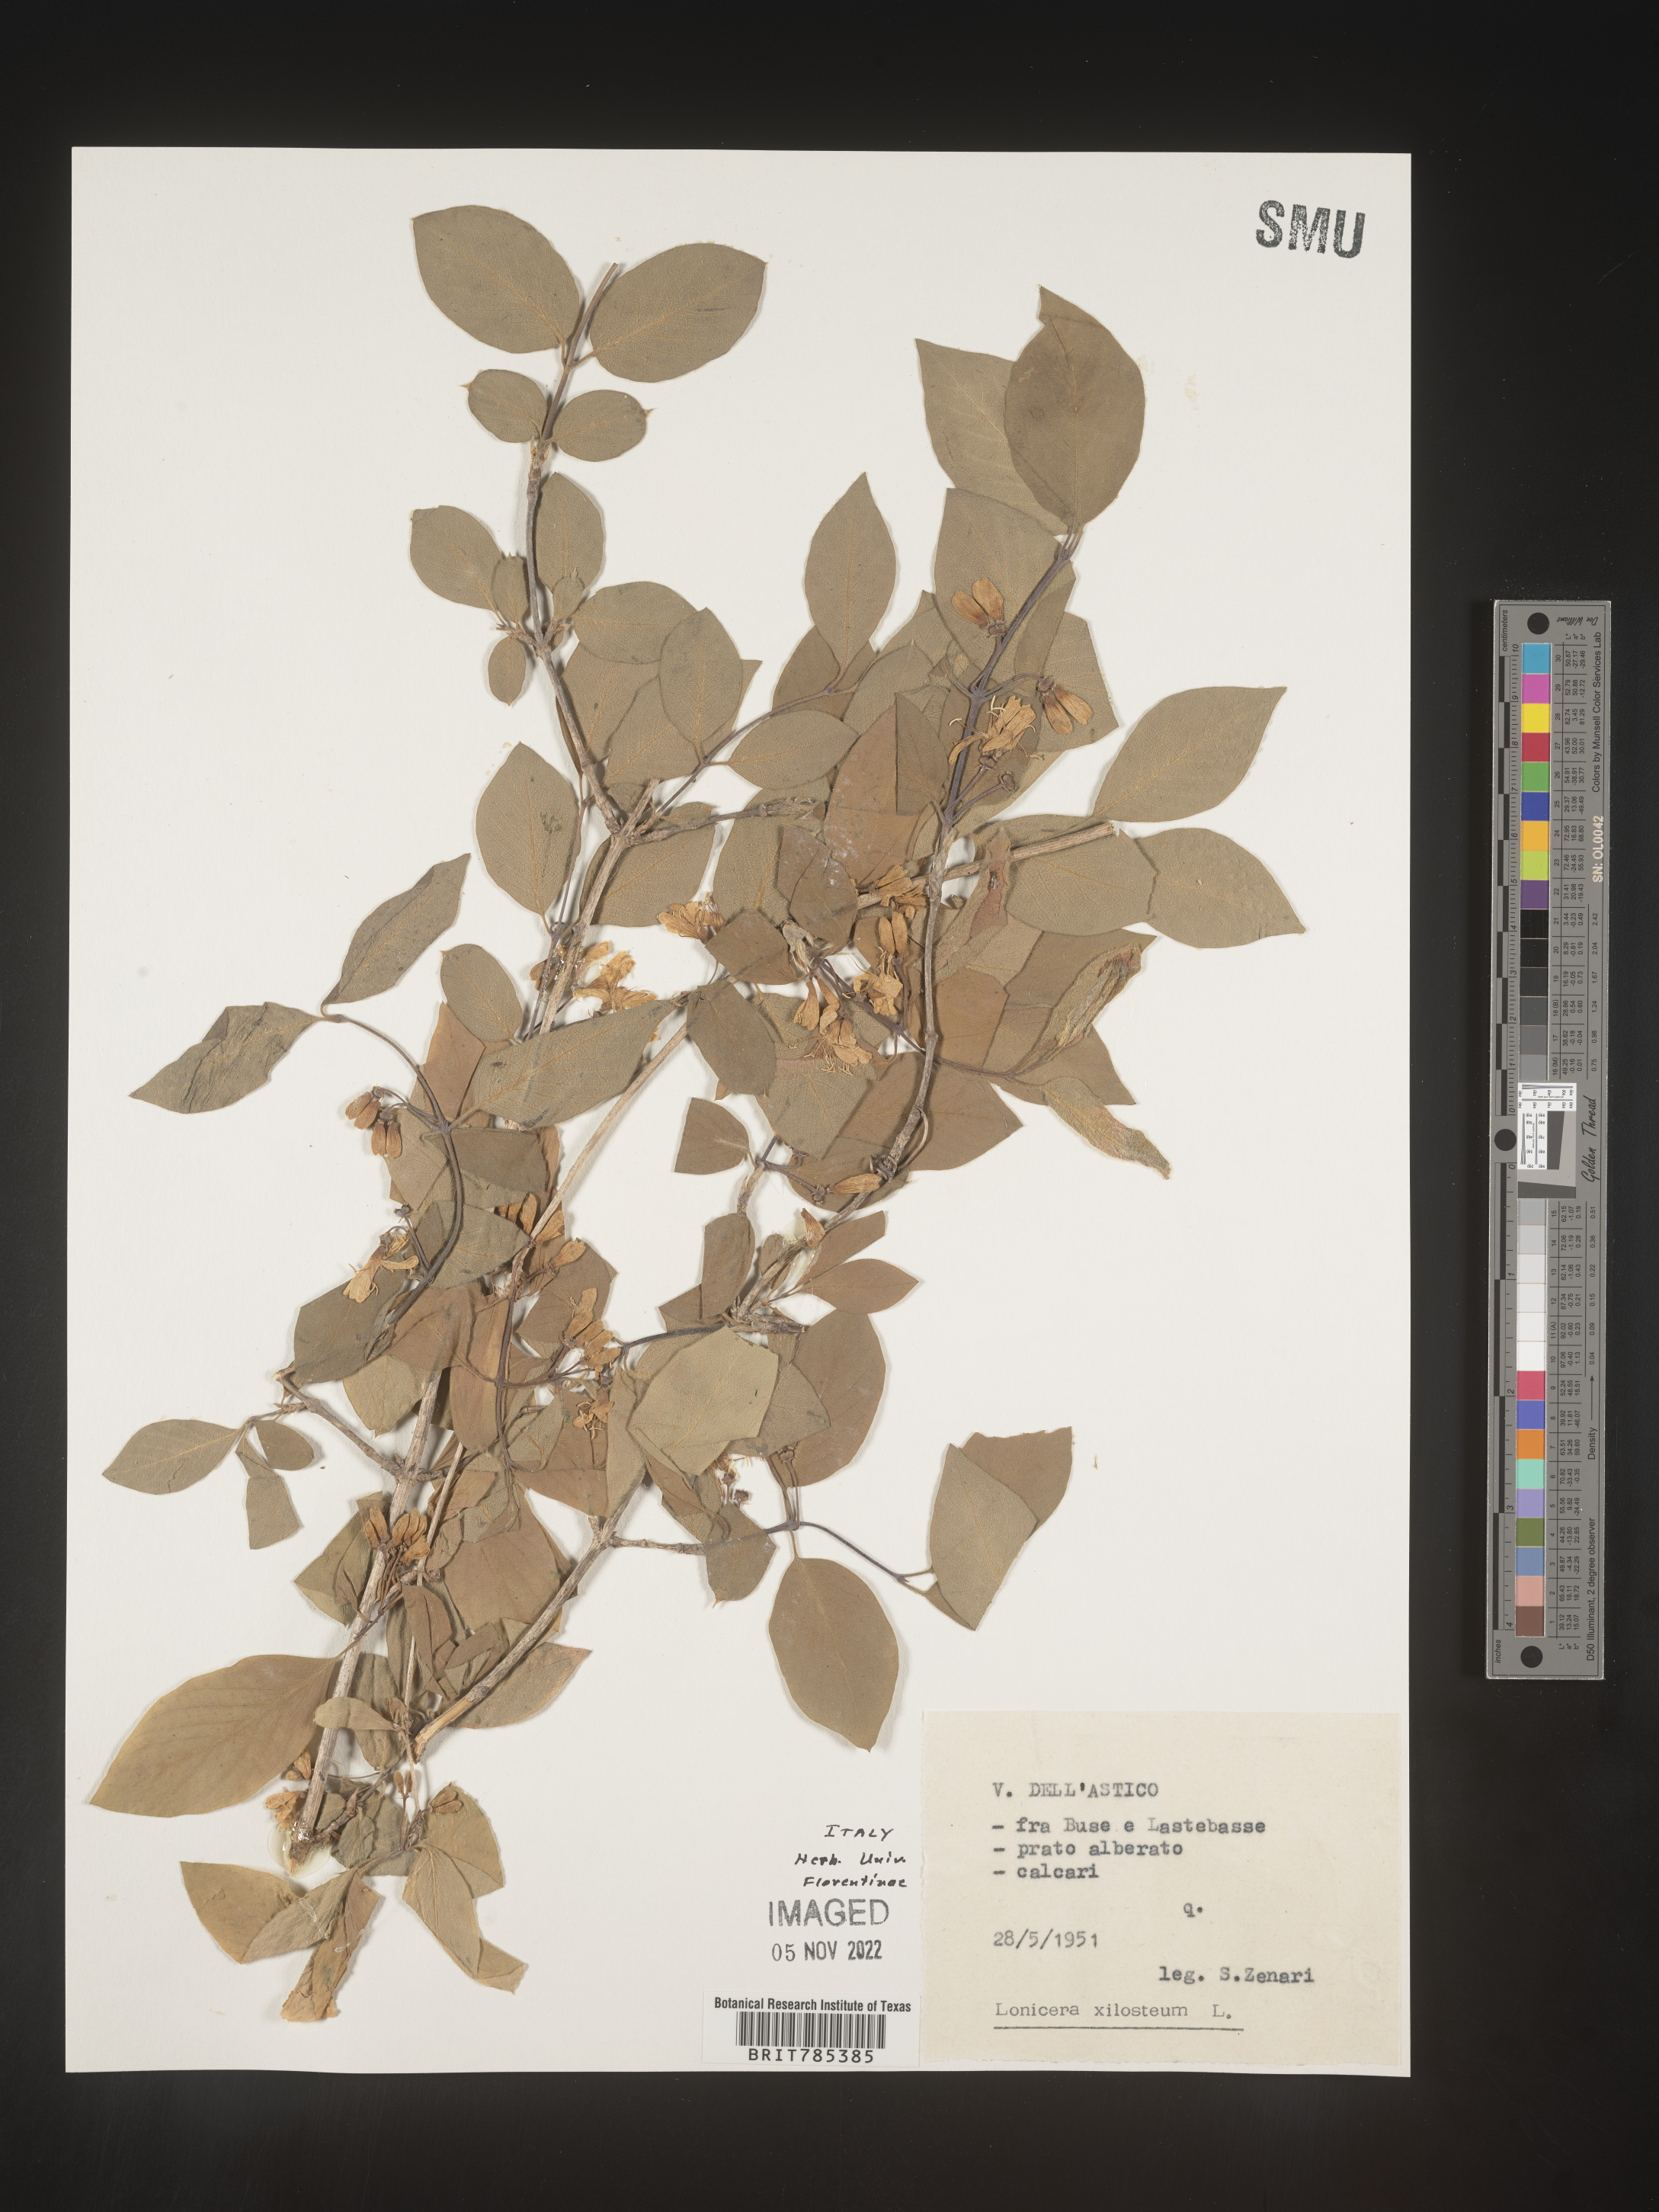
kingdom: Plantae
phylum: Tracheophyta
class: Magnoliopsida
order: Dipsacales
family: Caprifoliaceae
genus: Lonicera
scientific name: Lonicera
